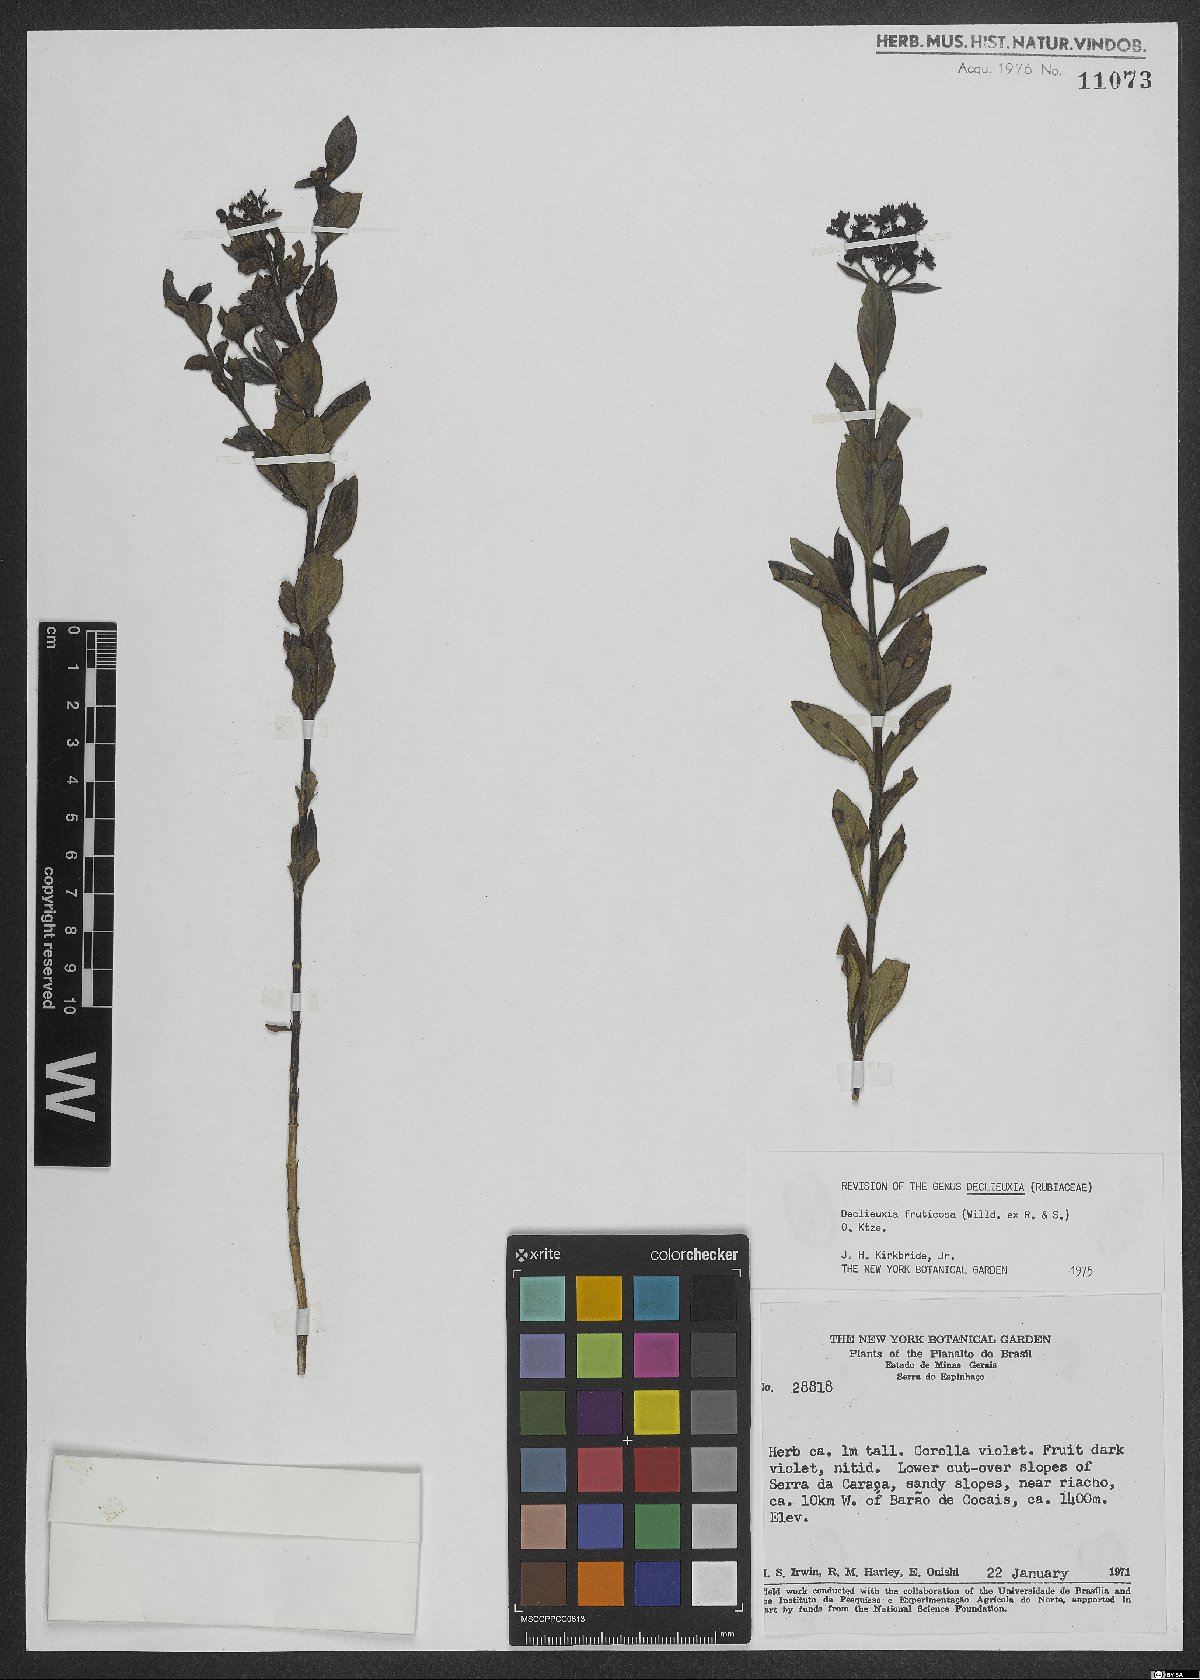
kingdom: Plantae
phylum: Tracheophyta
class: Magnoliopsida
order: Gentianales
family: Rubiaceae
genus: Declieuxia
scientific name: Declieuxia fruticosa
